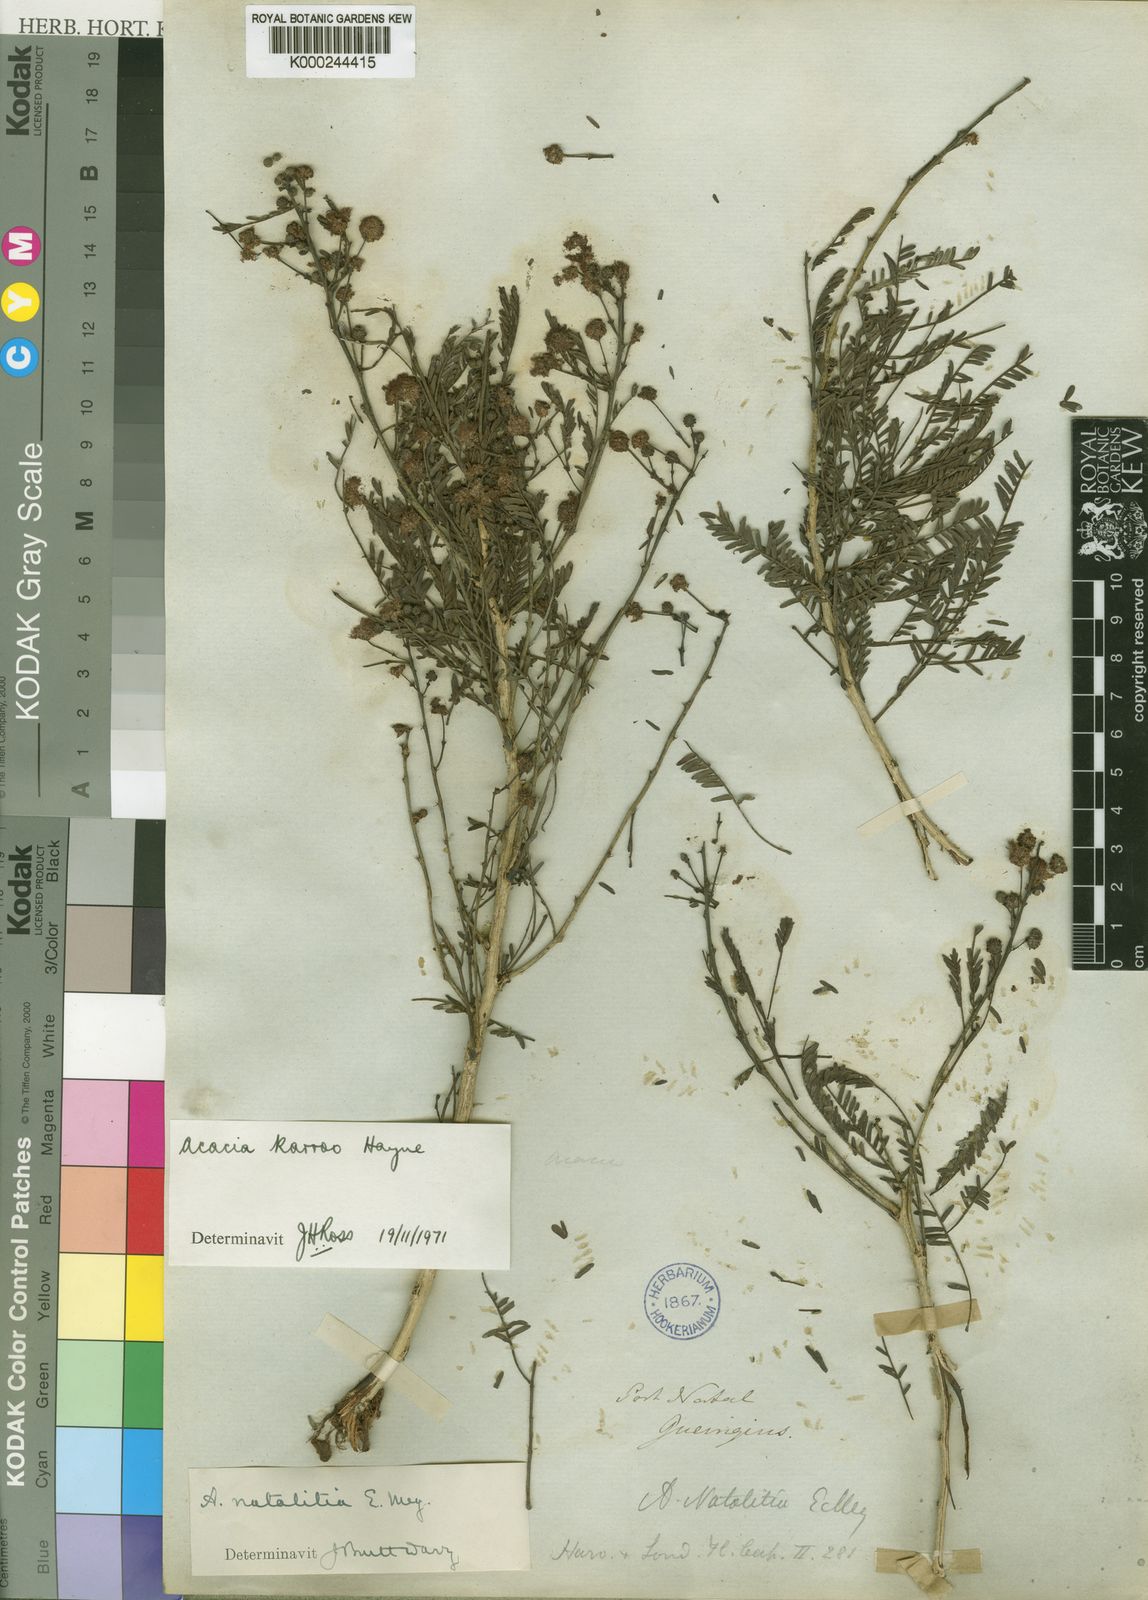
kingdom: Plantae
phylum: Tracheophyta
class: Magnoliopsida
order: Fabales
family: Fabaceae
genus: Vachellia
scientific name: Vachellia karroo
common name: Sweet thorn
